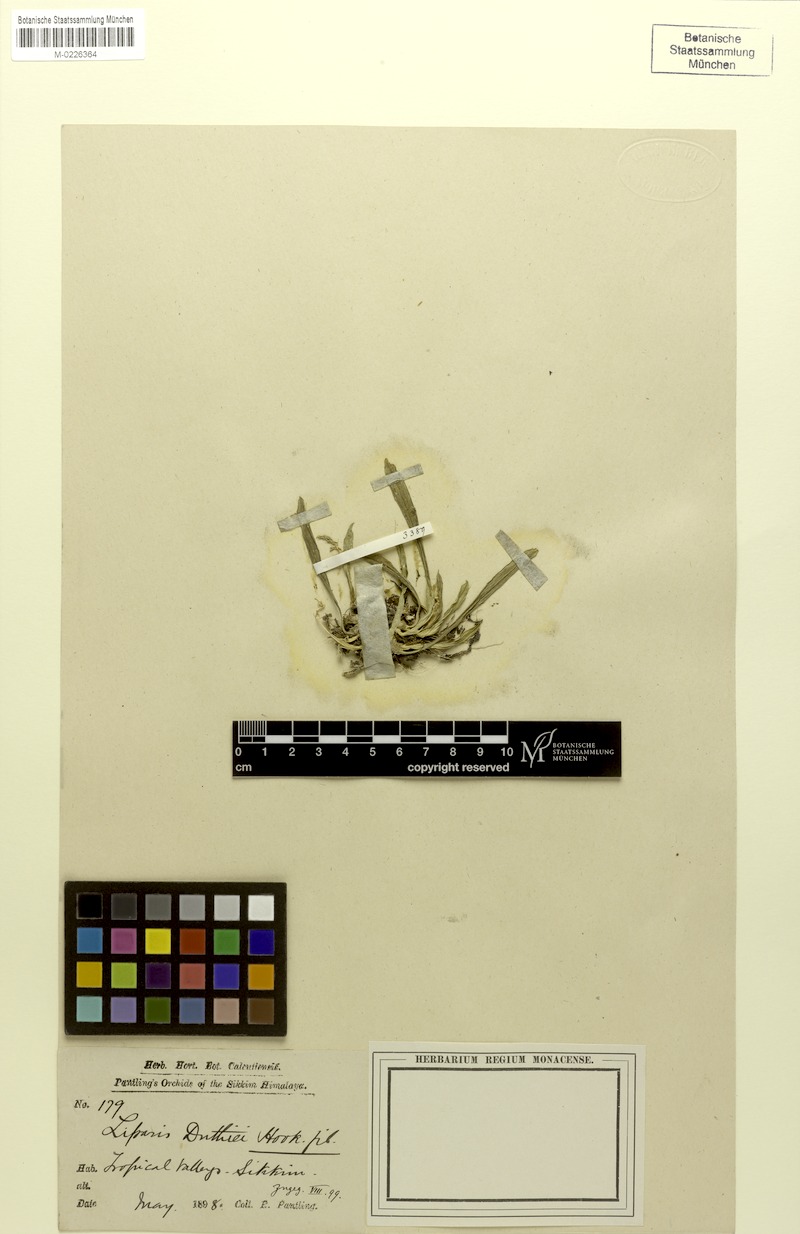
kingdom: Plantae
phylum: Tracheophyta
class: Liliopsida
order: Asparagales
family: Orchidaceae
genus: Liparis
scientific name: Liparis duthiei
